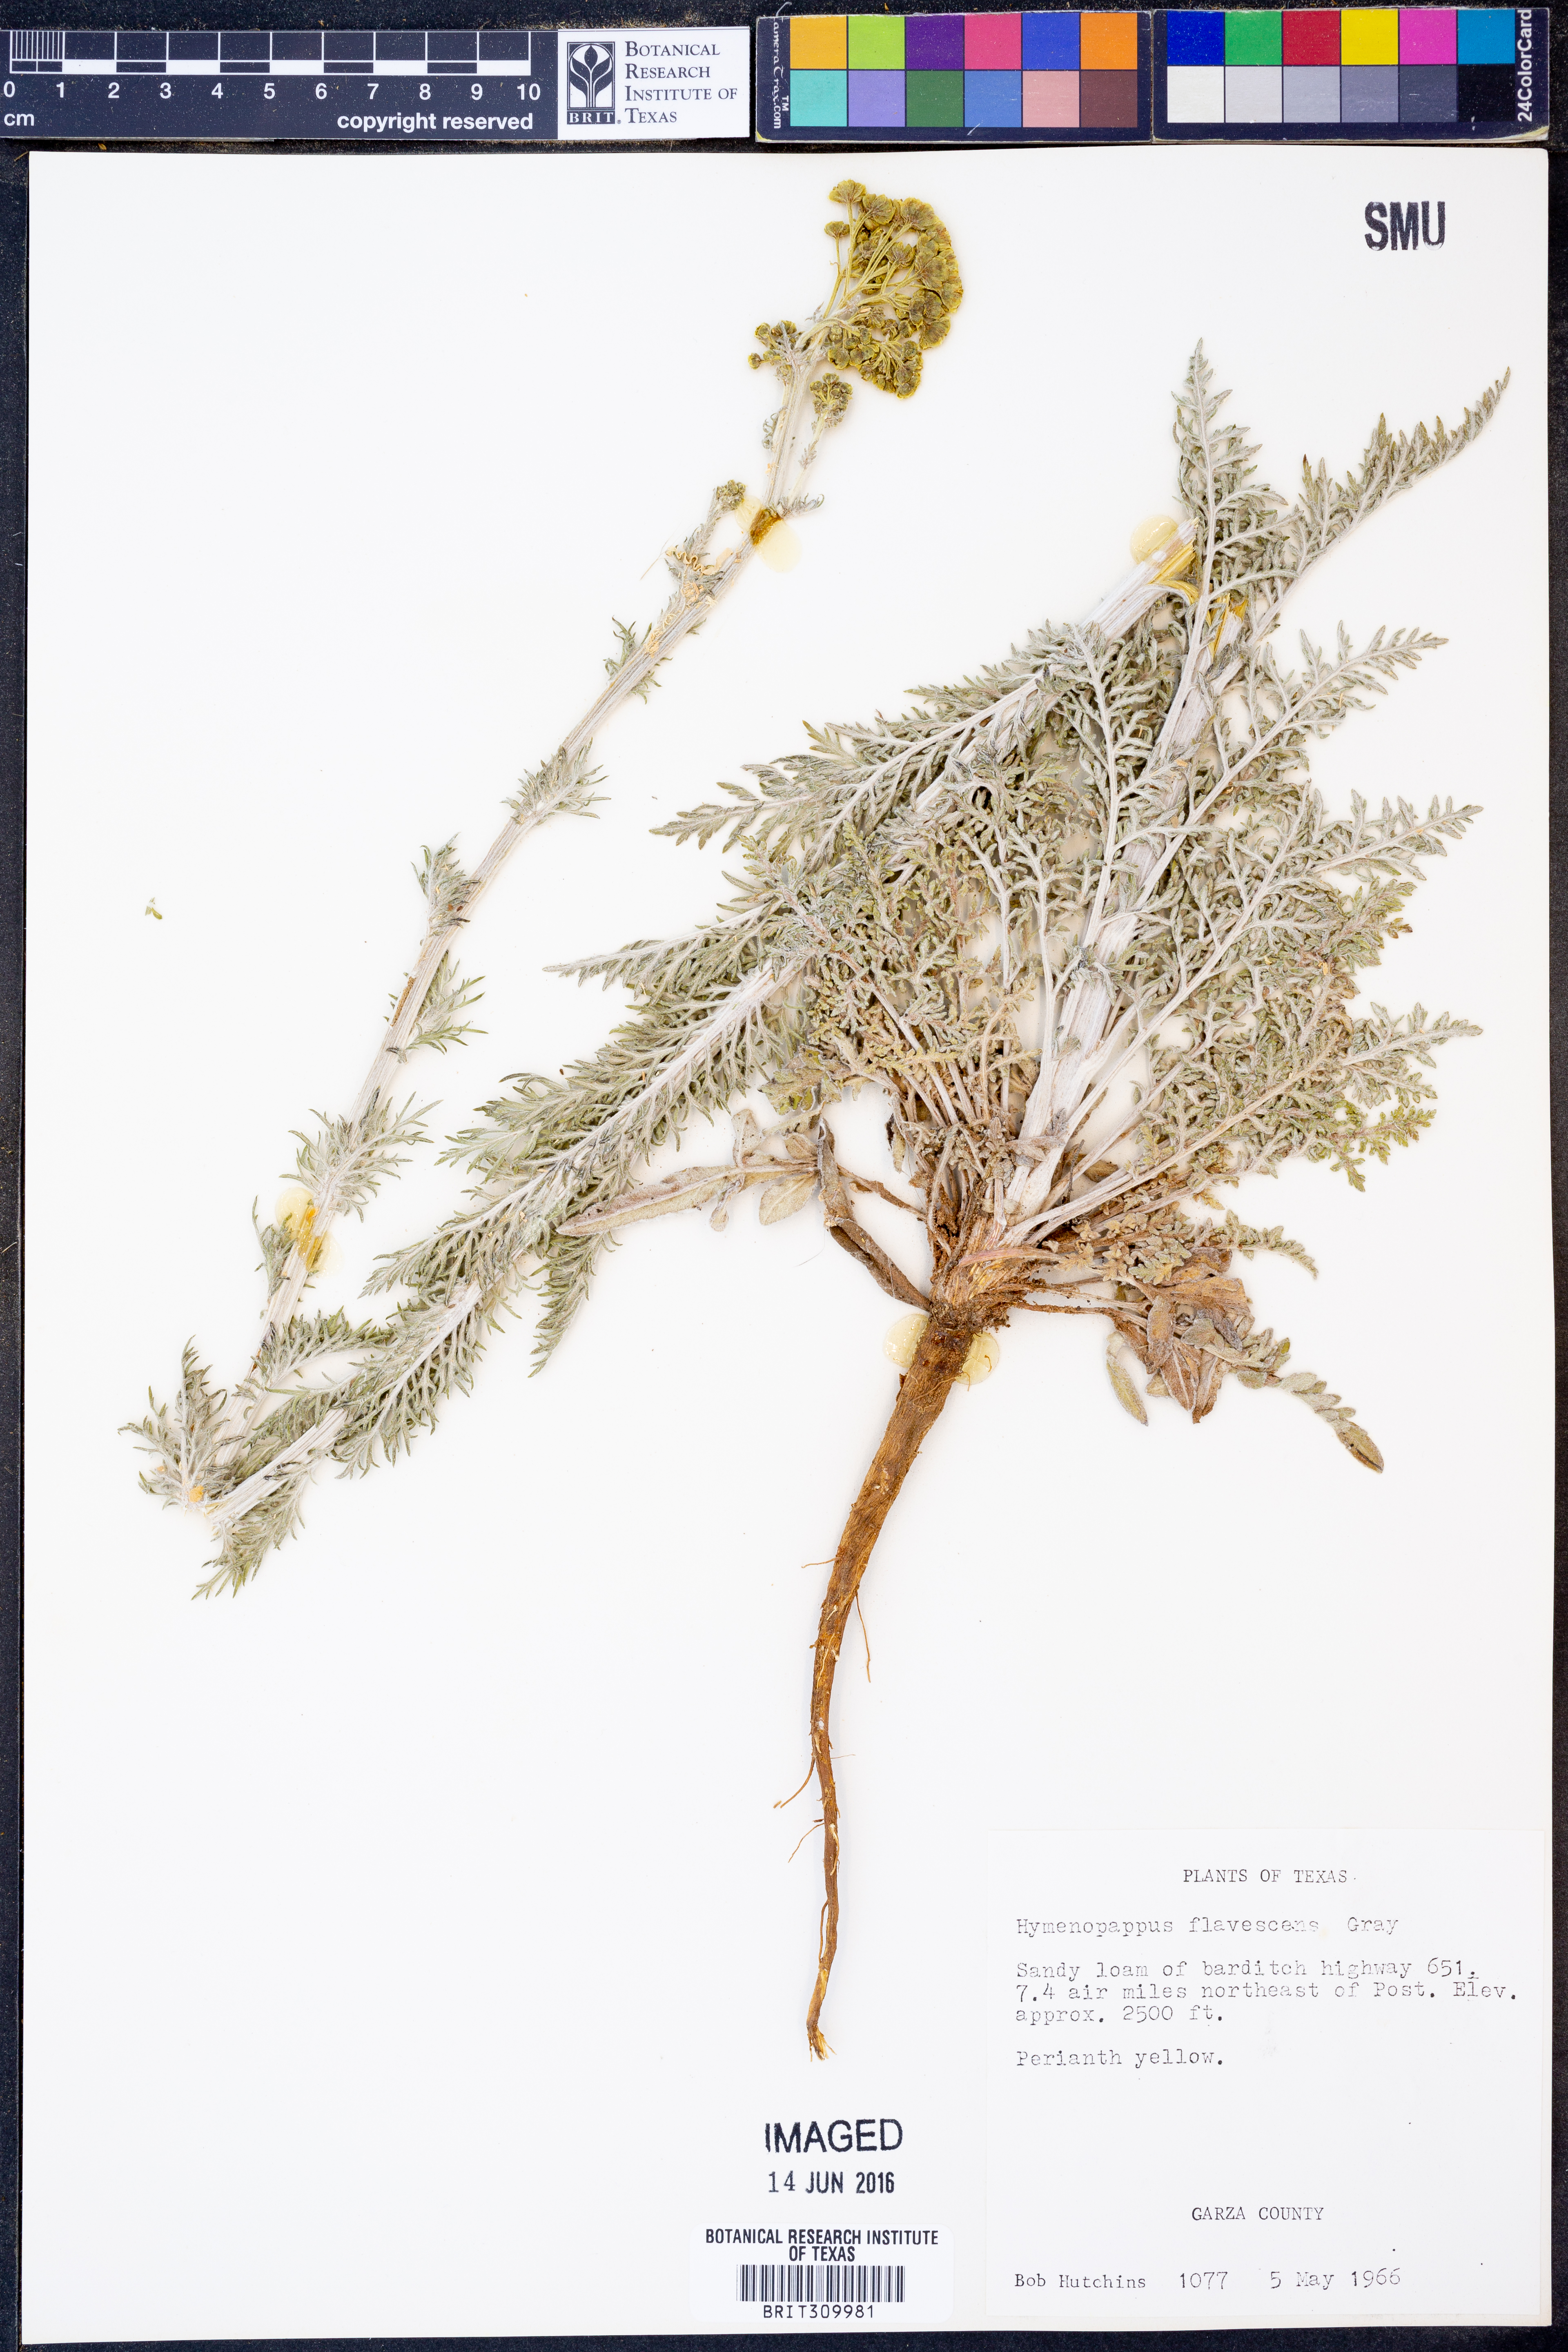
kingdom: Plantae
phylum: Tracheophyta
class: Magnoliopsida
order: Asterales
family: Asteraceae
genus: Hymenopappus
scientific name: Hymenopappus flavescens
